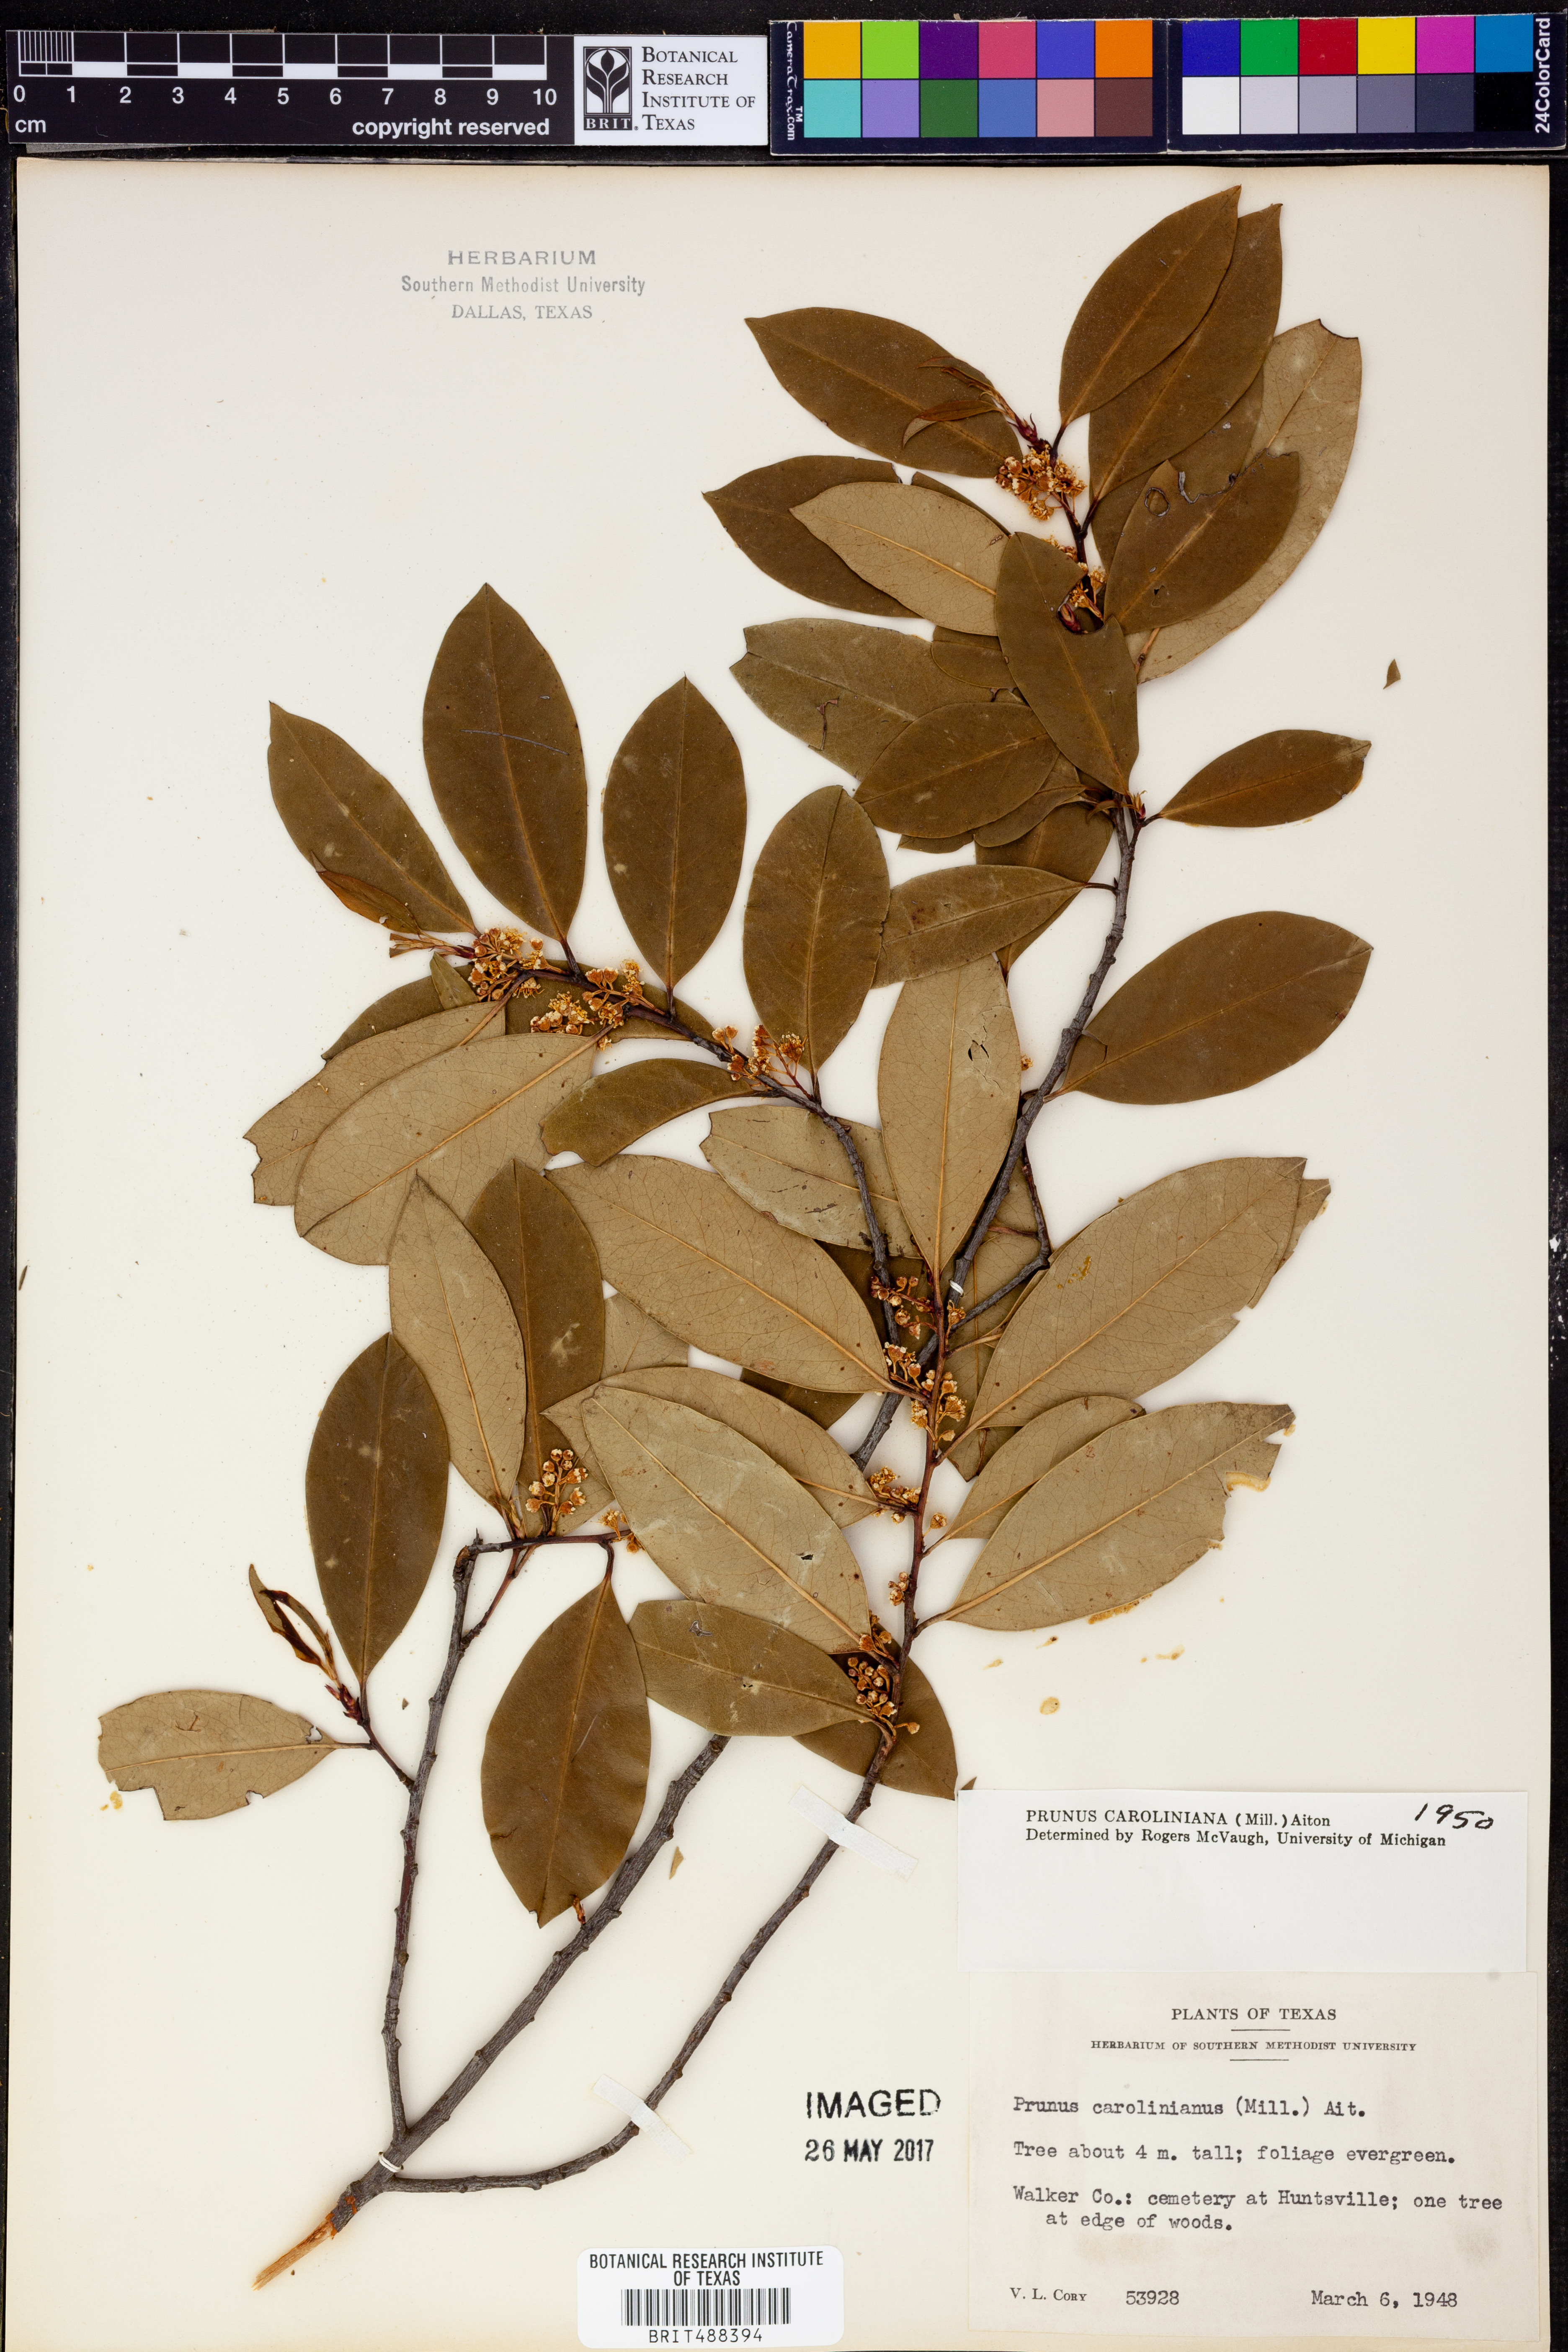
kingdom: Plantae
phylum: Tracheophyta
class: Magnoliopsida
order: Rosales
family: Rosaceae
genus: Prunus
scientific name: Prunus caroliniana
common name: Carolina laurel cherry
